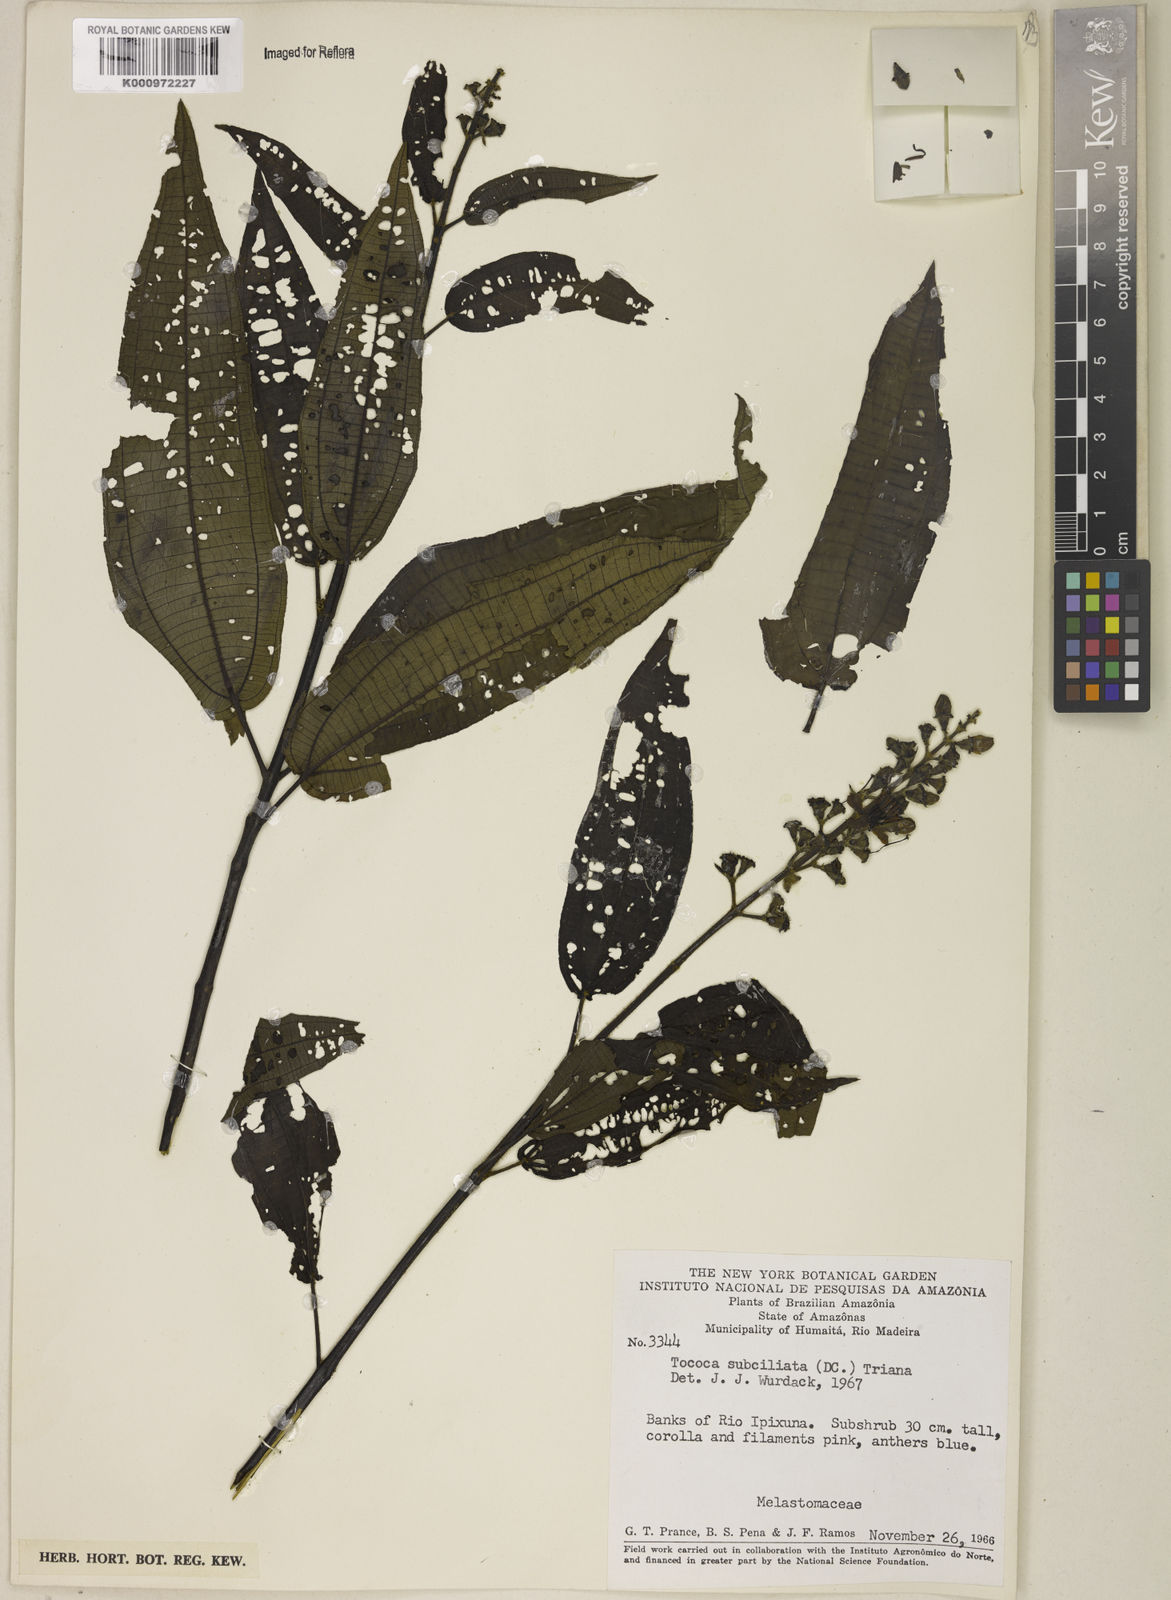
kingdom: Plantae
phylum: Tracheophyta
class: Magnoliopsida
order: Myrtales
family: Melastomataceae
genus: Miconia
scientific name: Miconia subciliata
